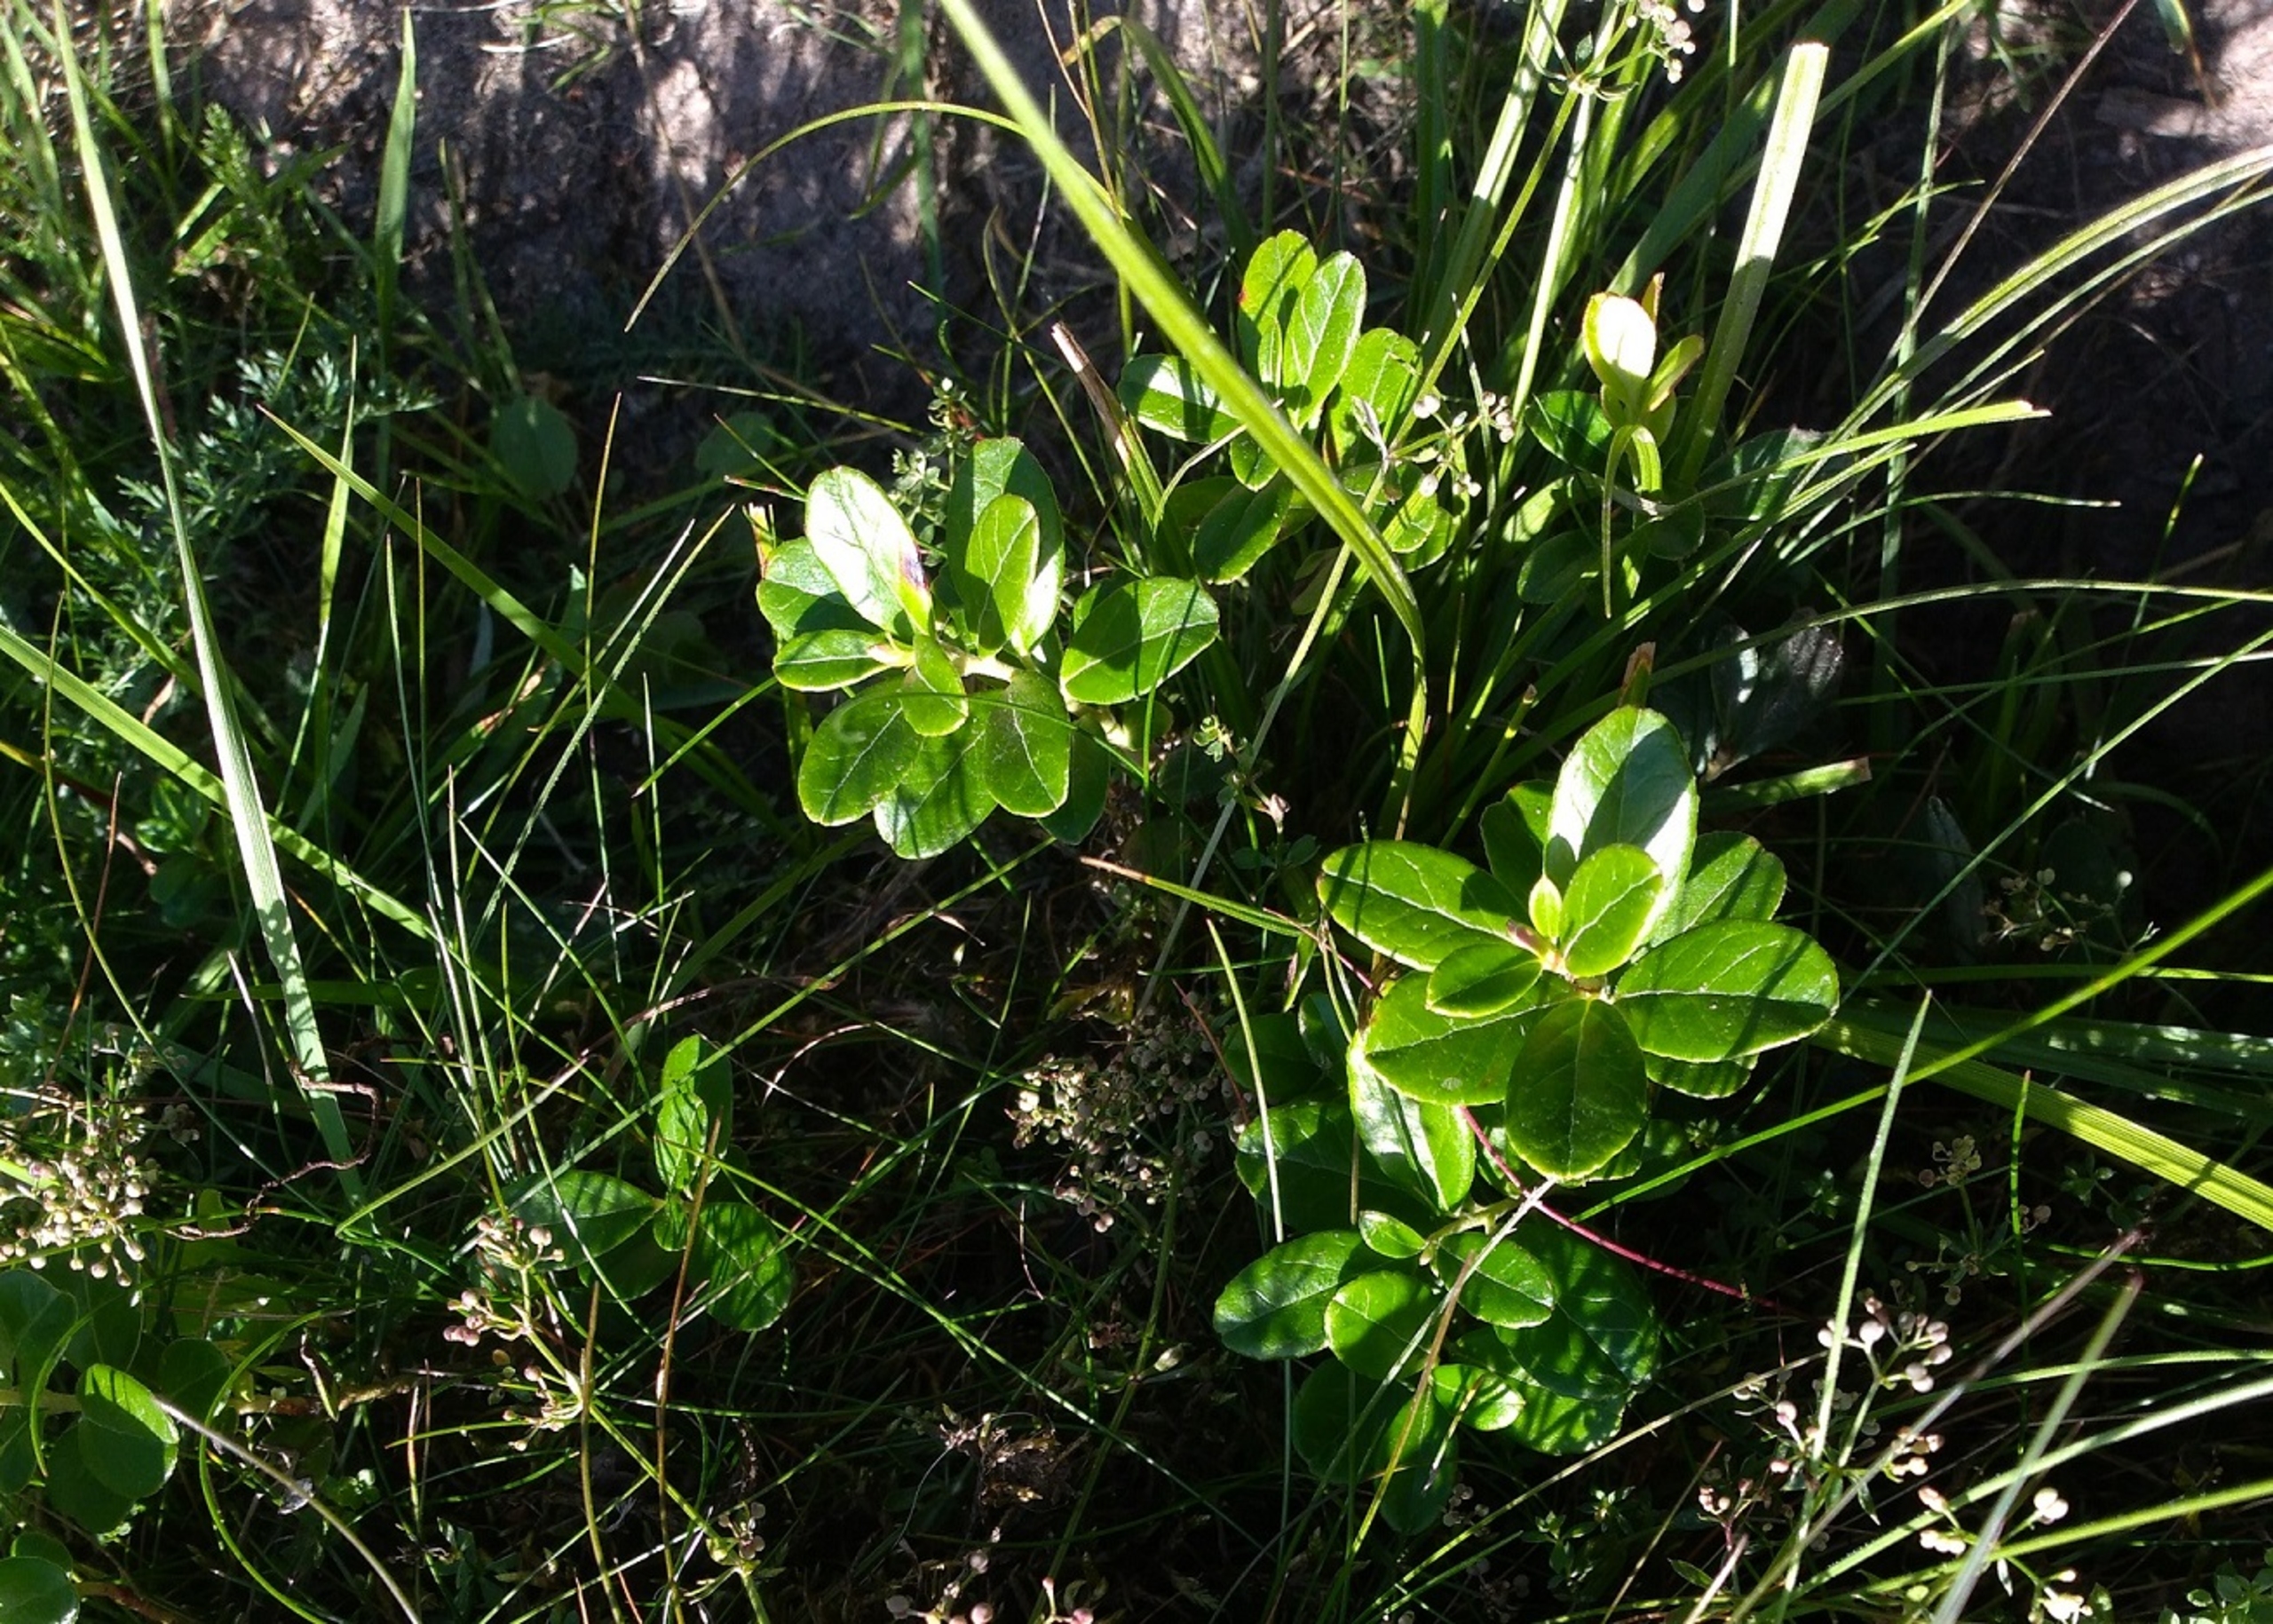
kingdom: Plantae
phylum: Tracheophyta
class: Magnoliopsida
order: Ericales
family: Ericaceae
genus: Vaccinium
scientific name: Vaccinium vitis-idaea
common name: Tyttebær
